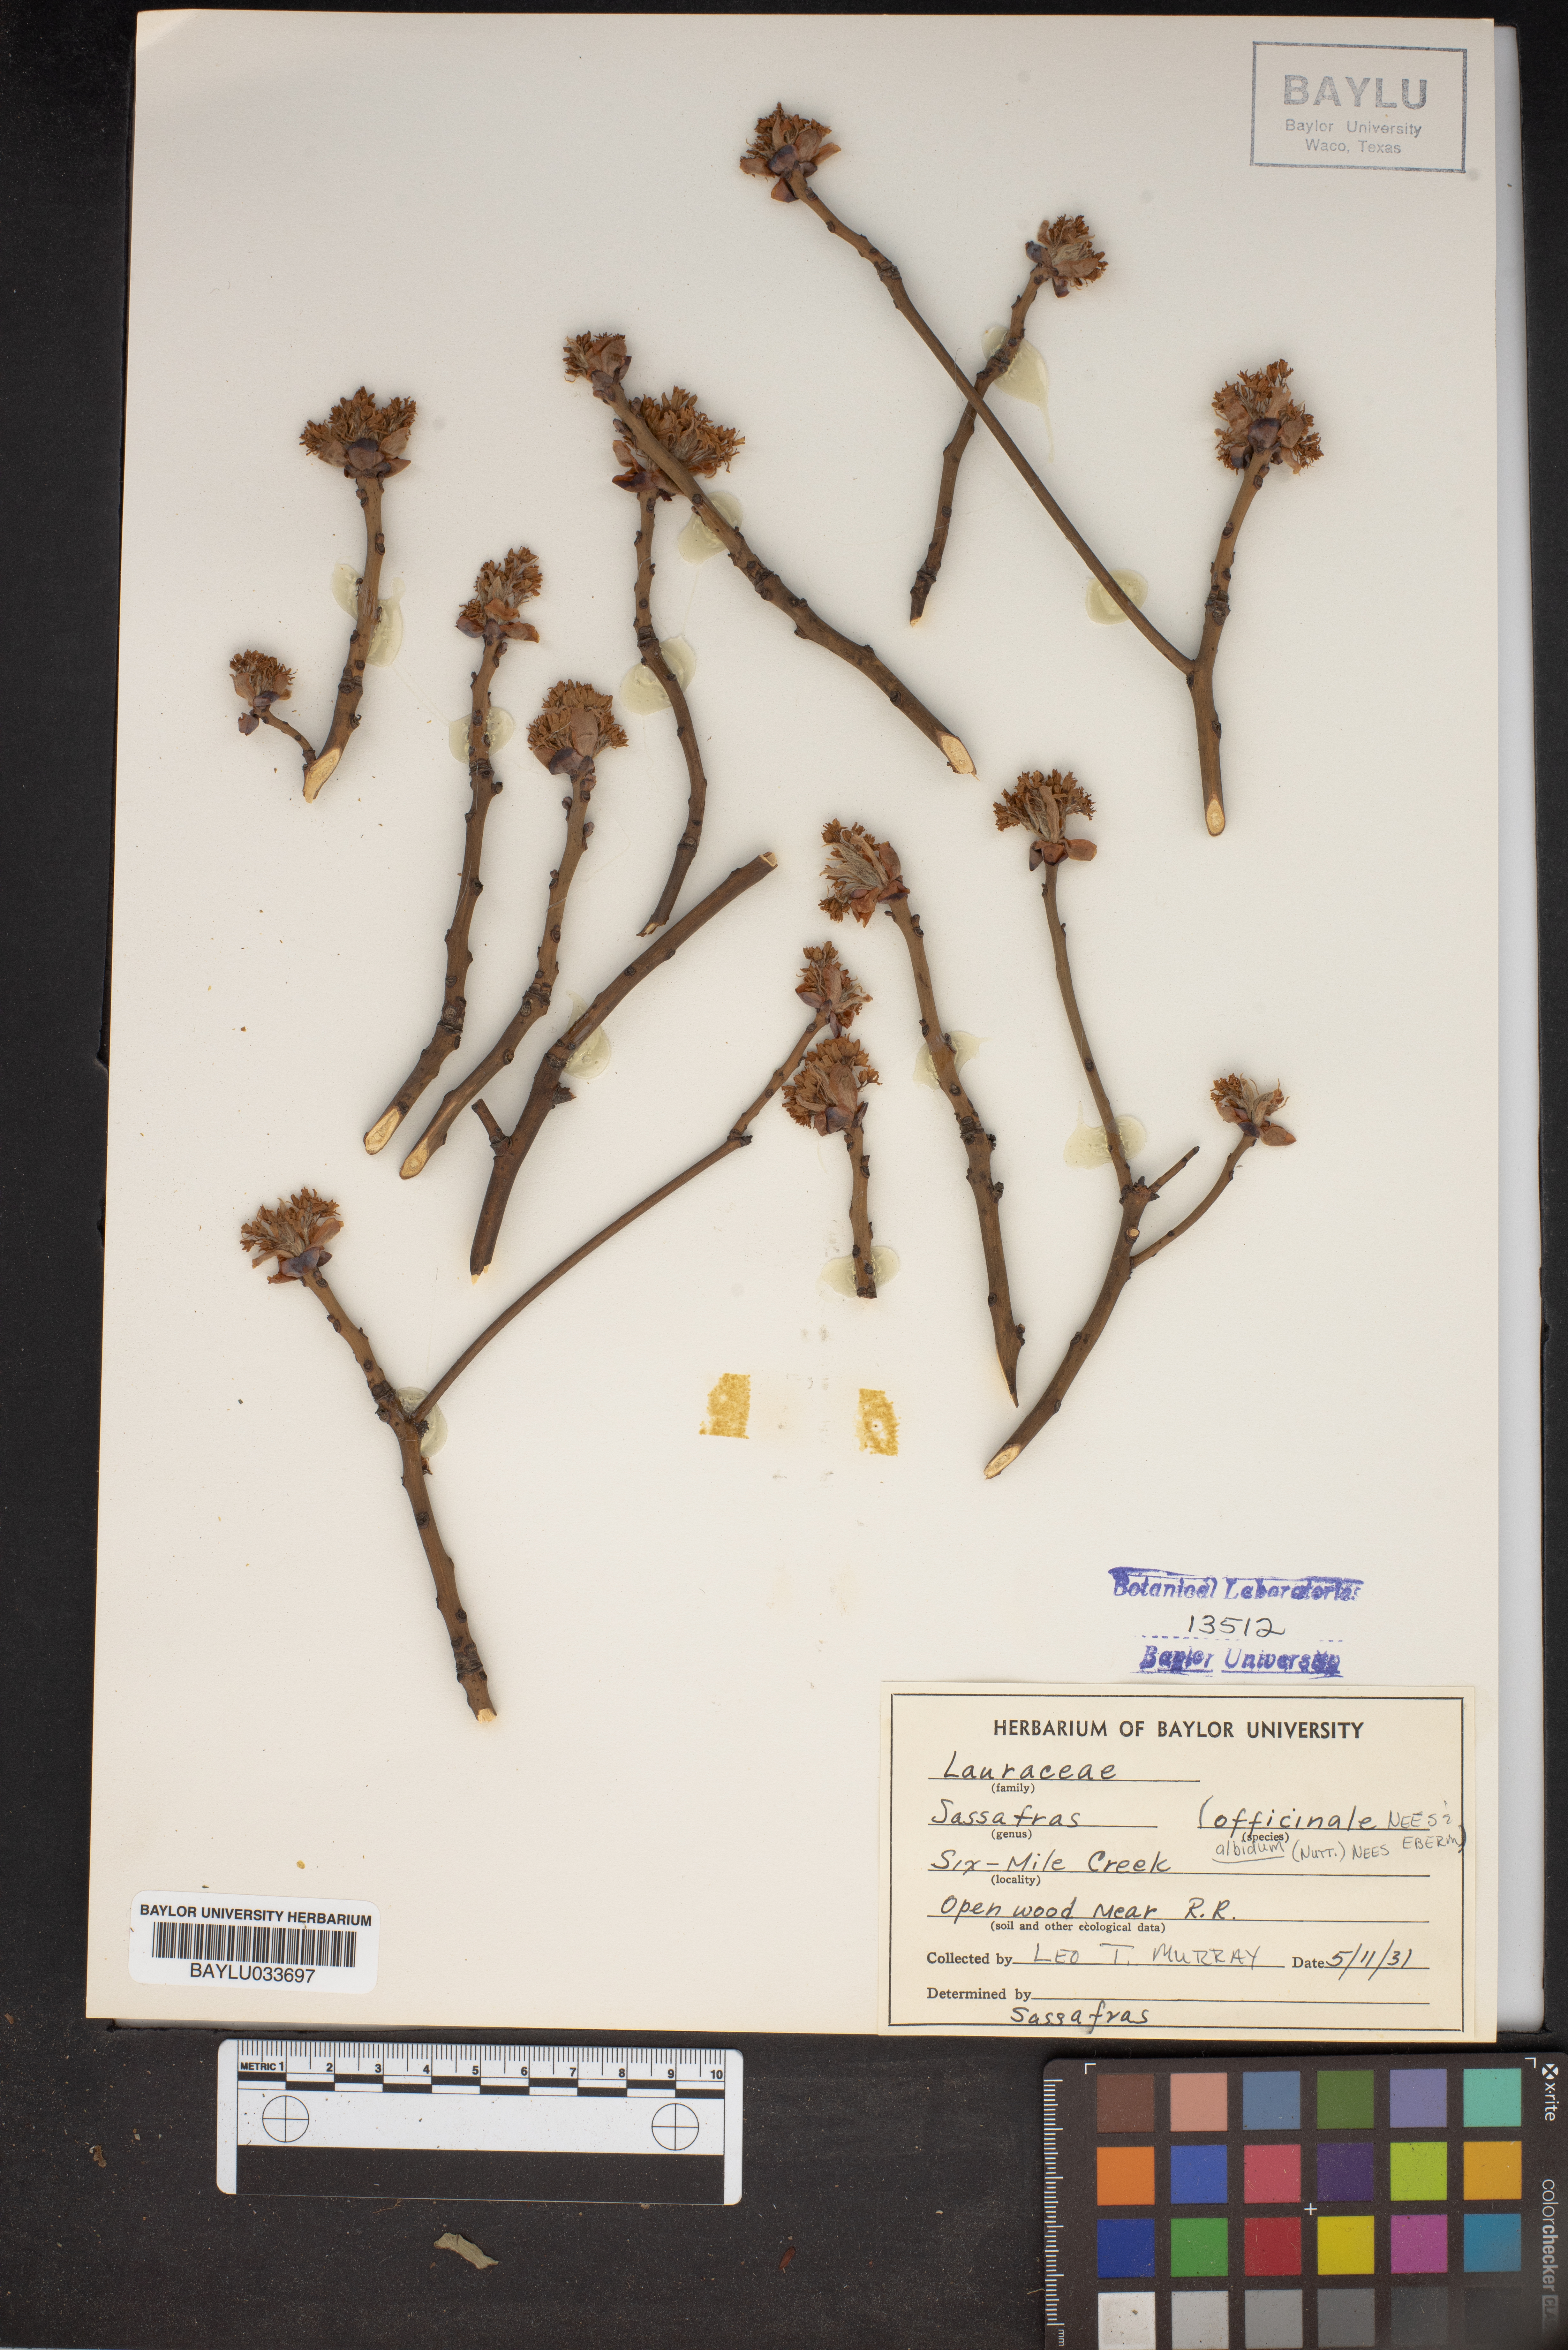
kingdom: Plantae
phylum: Tracheophyta
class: Magnoliopsida
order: Laurales
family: Lauraceae
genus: Sassafras
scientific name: Sassafras albidum
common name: Sassafras
